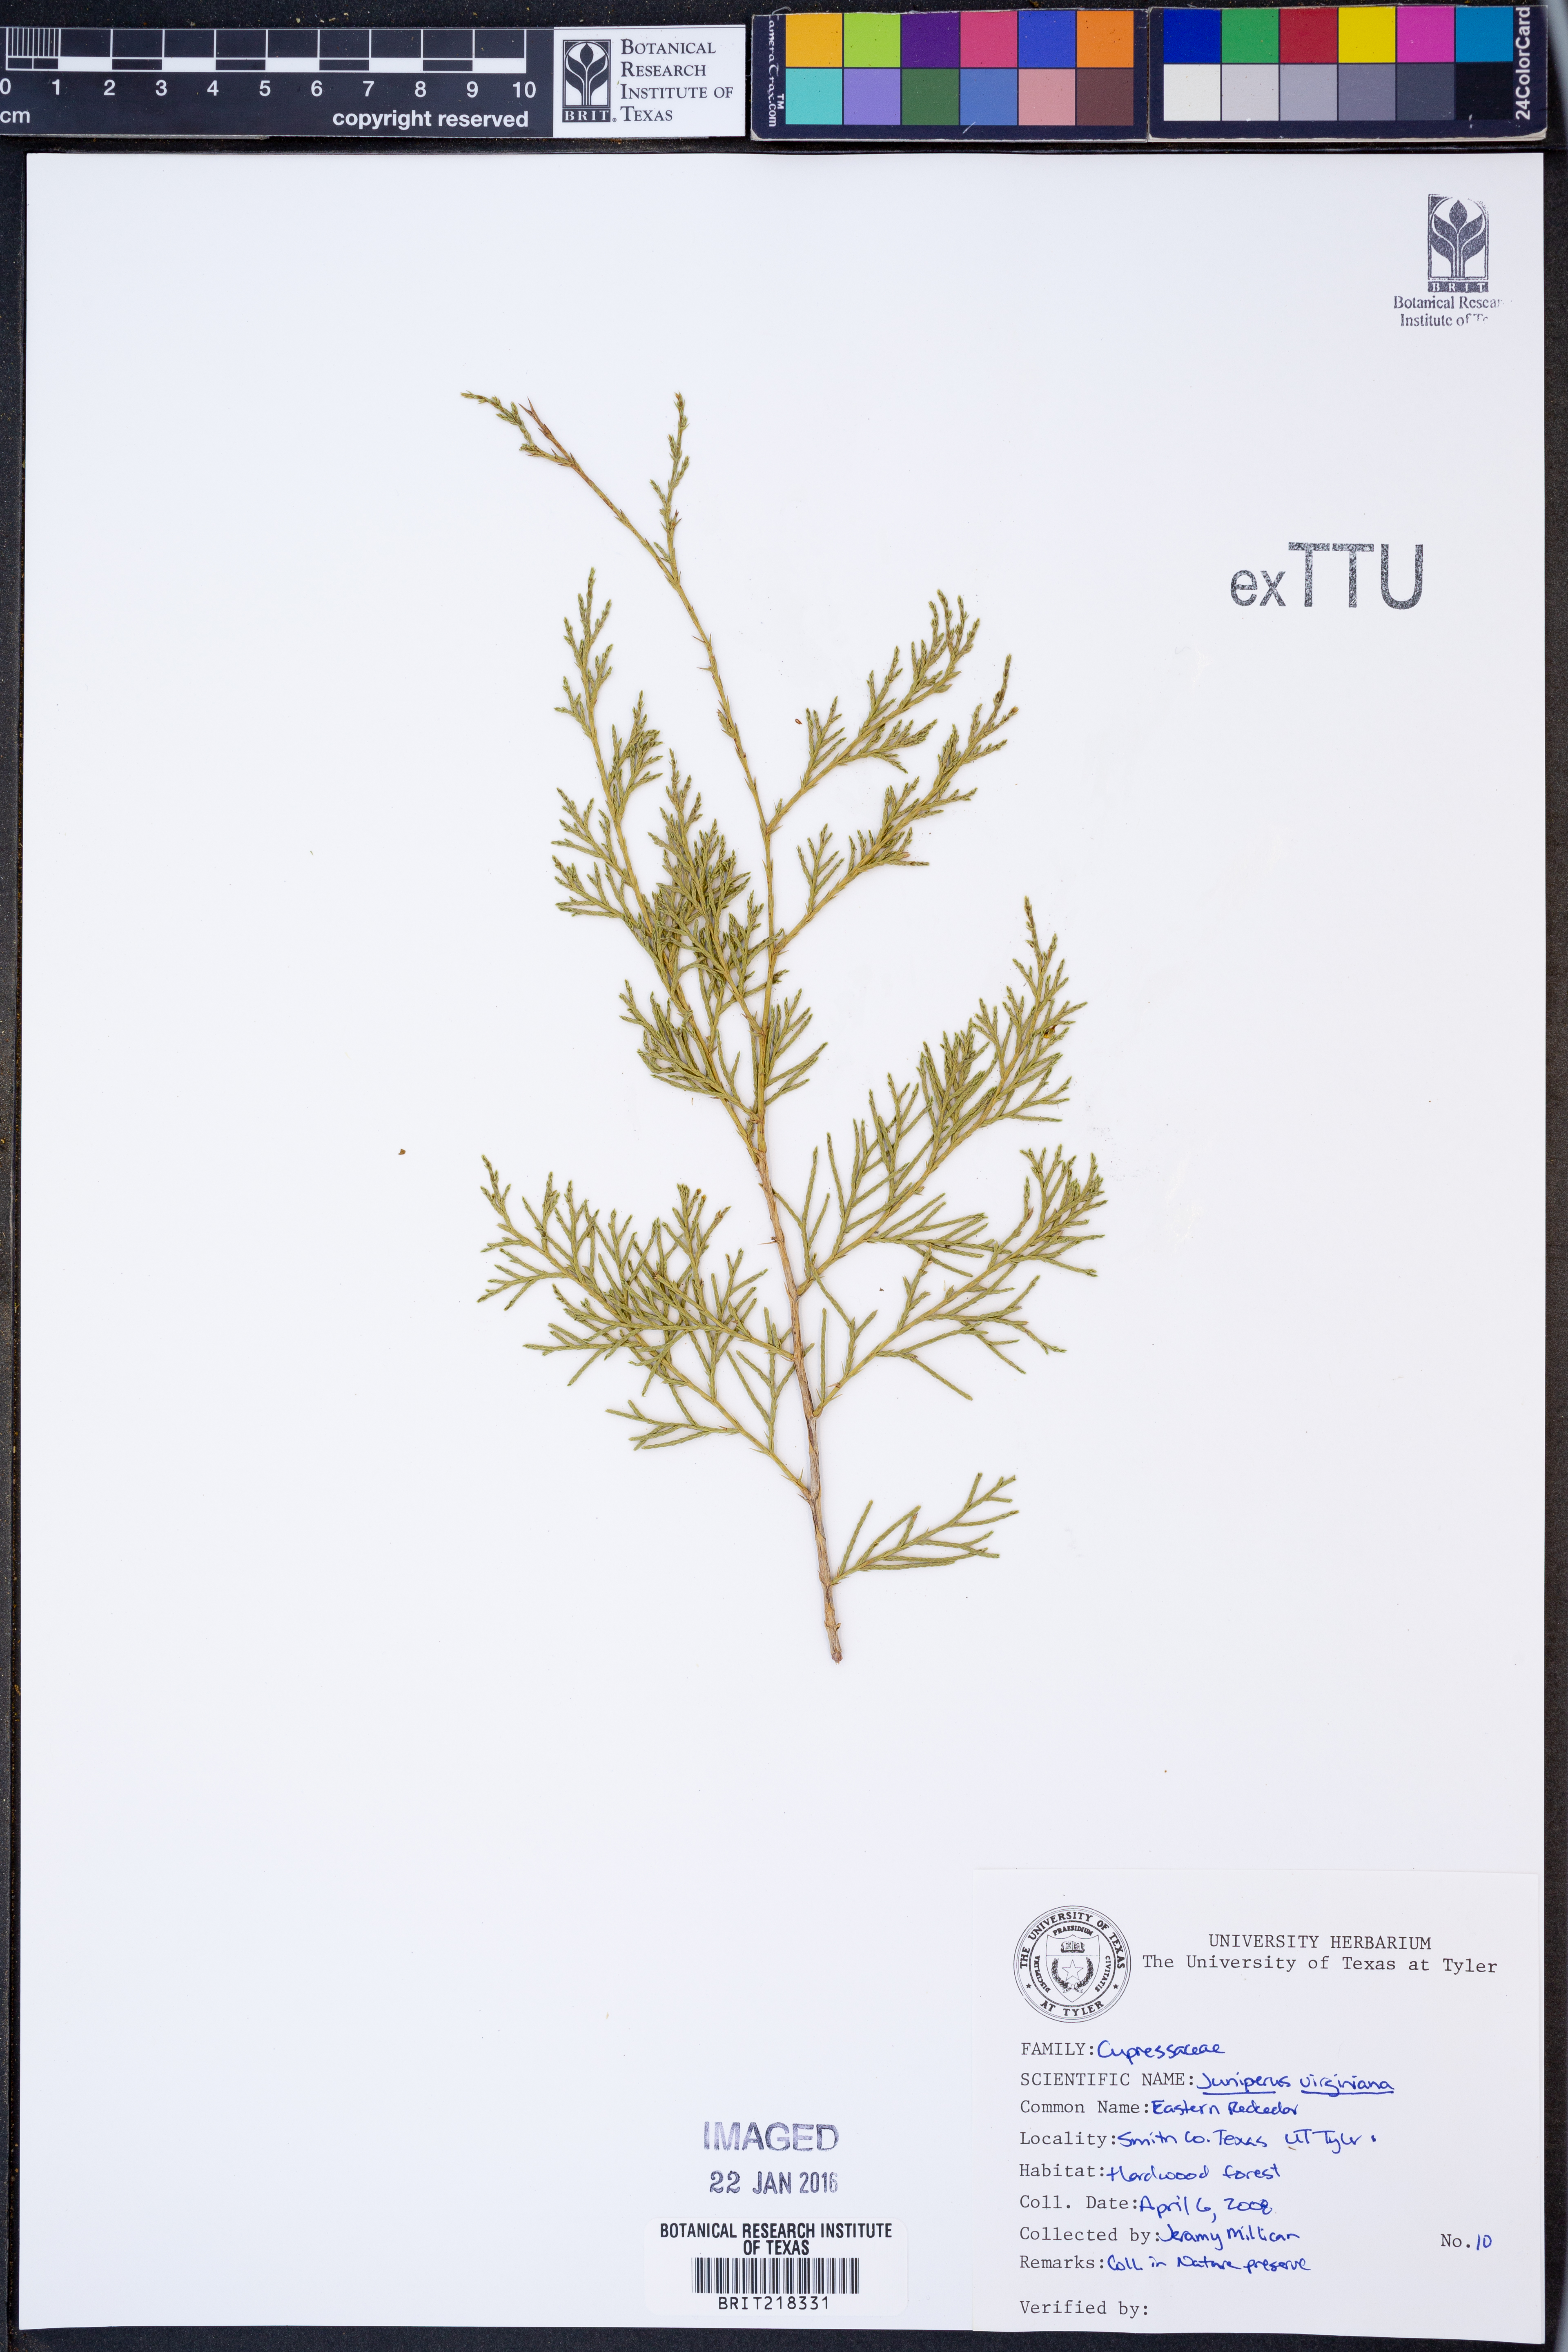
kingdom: Plantae
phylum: Tracheophyta
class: Pinopsida
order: Pinales
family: Cupressaceae
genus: Juniperus
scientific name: Juniperus virginiana
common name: Red juniper
